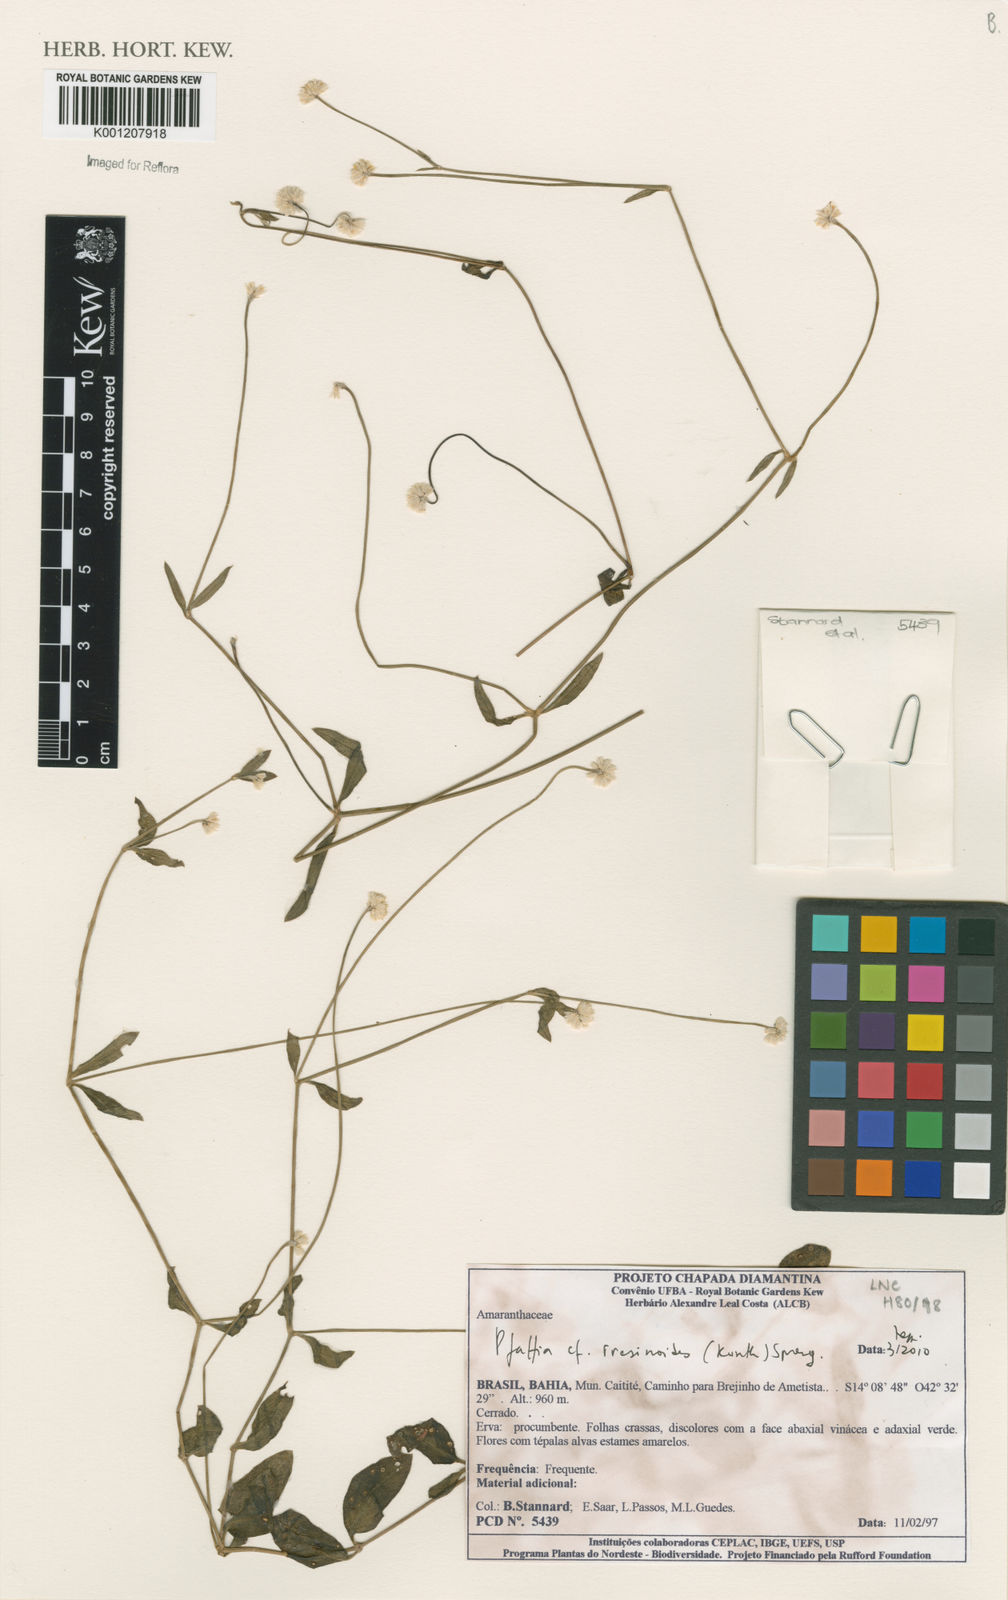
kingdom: Plantae
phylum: Tracheophyta
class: Magnoliopsida
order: Caryophyllales
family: Amaranthaceae
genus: Pfaffia
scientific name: Pfaffia iresinoides
